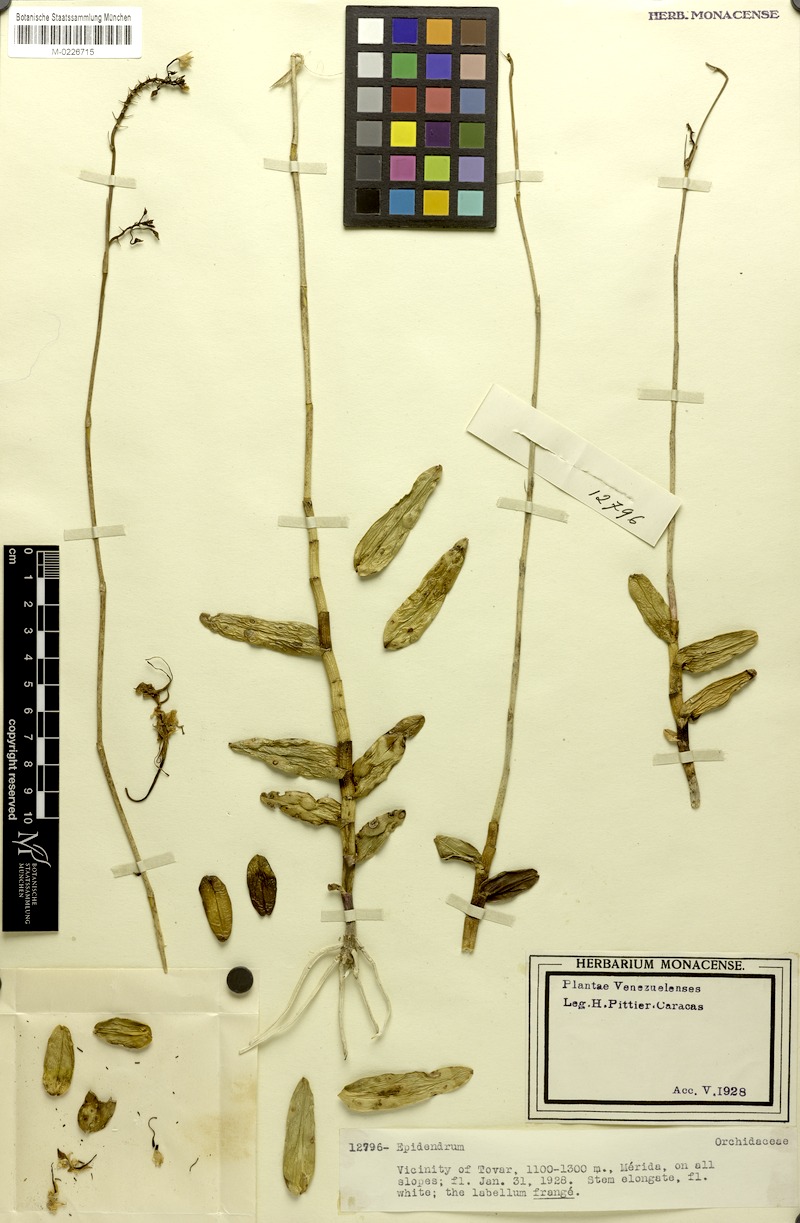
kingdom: Plantae
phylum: Tracheophyta
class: Liliopsida
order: Asparagales
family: Orchidaceae
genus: Epidendrum
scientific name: Epidendrum
